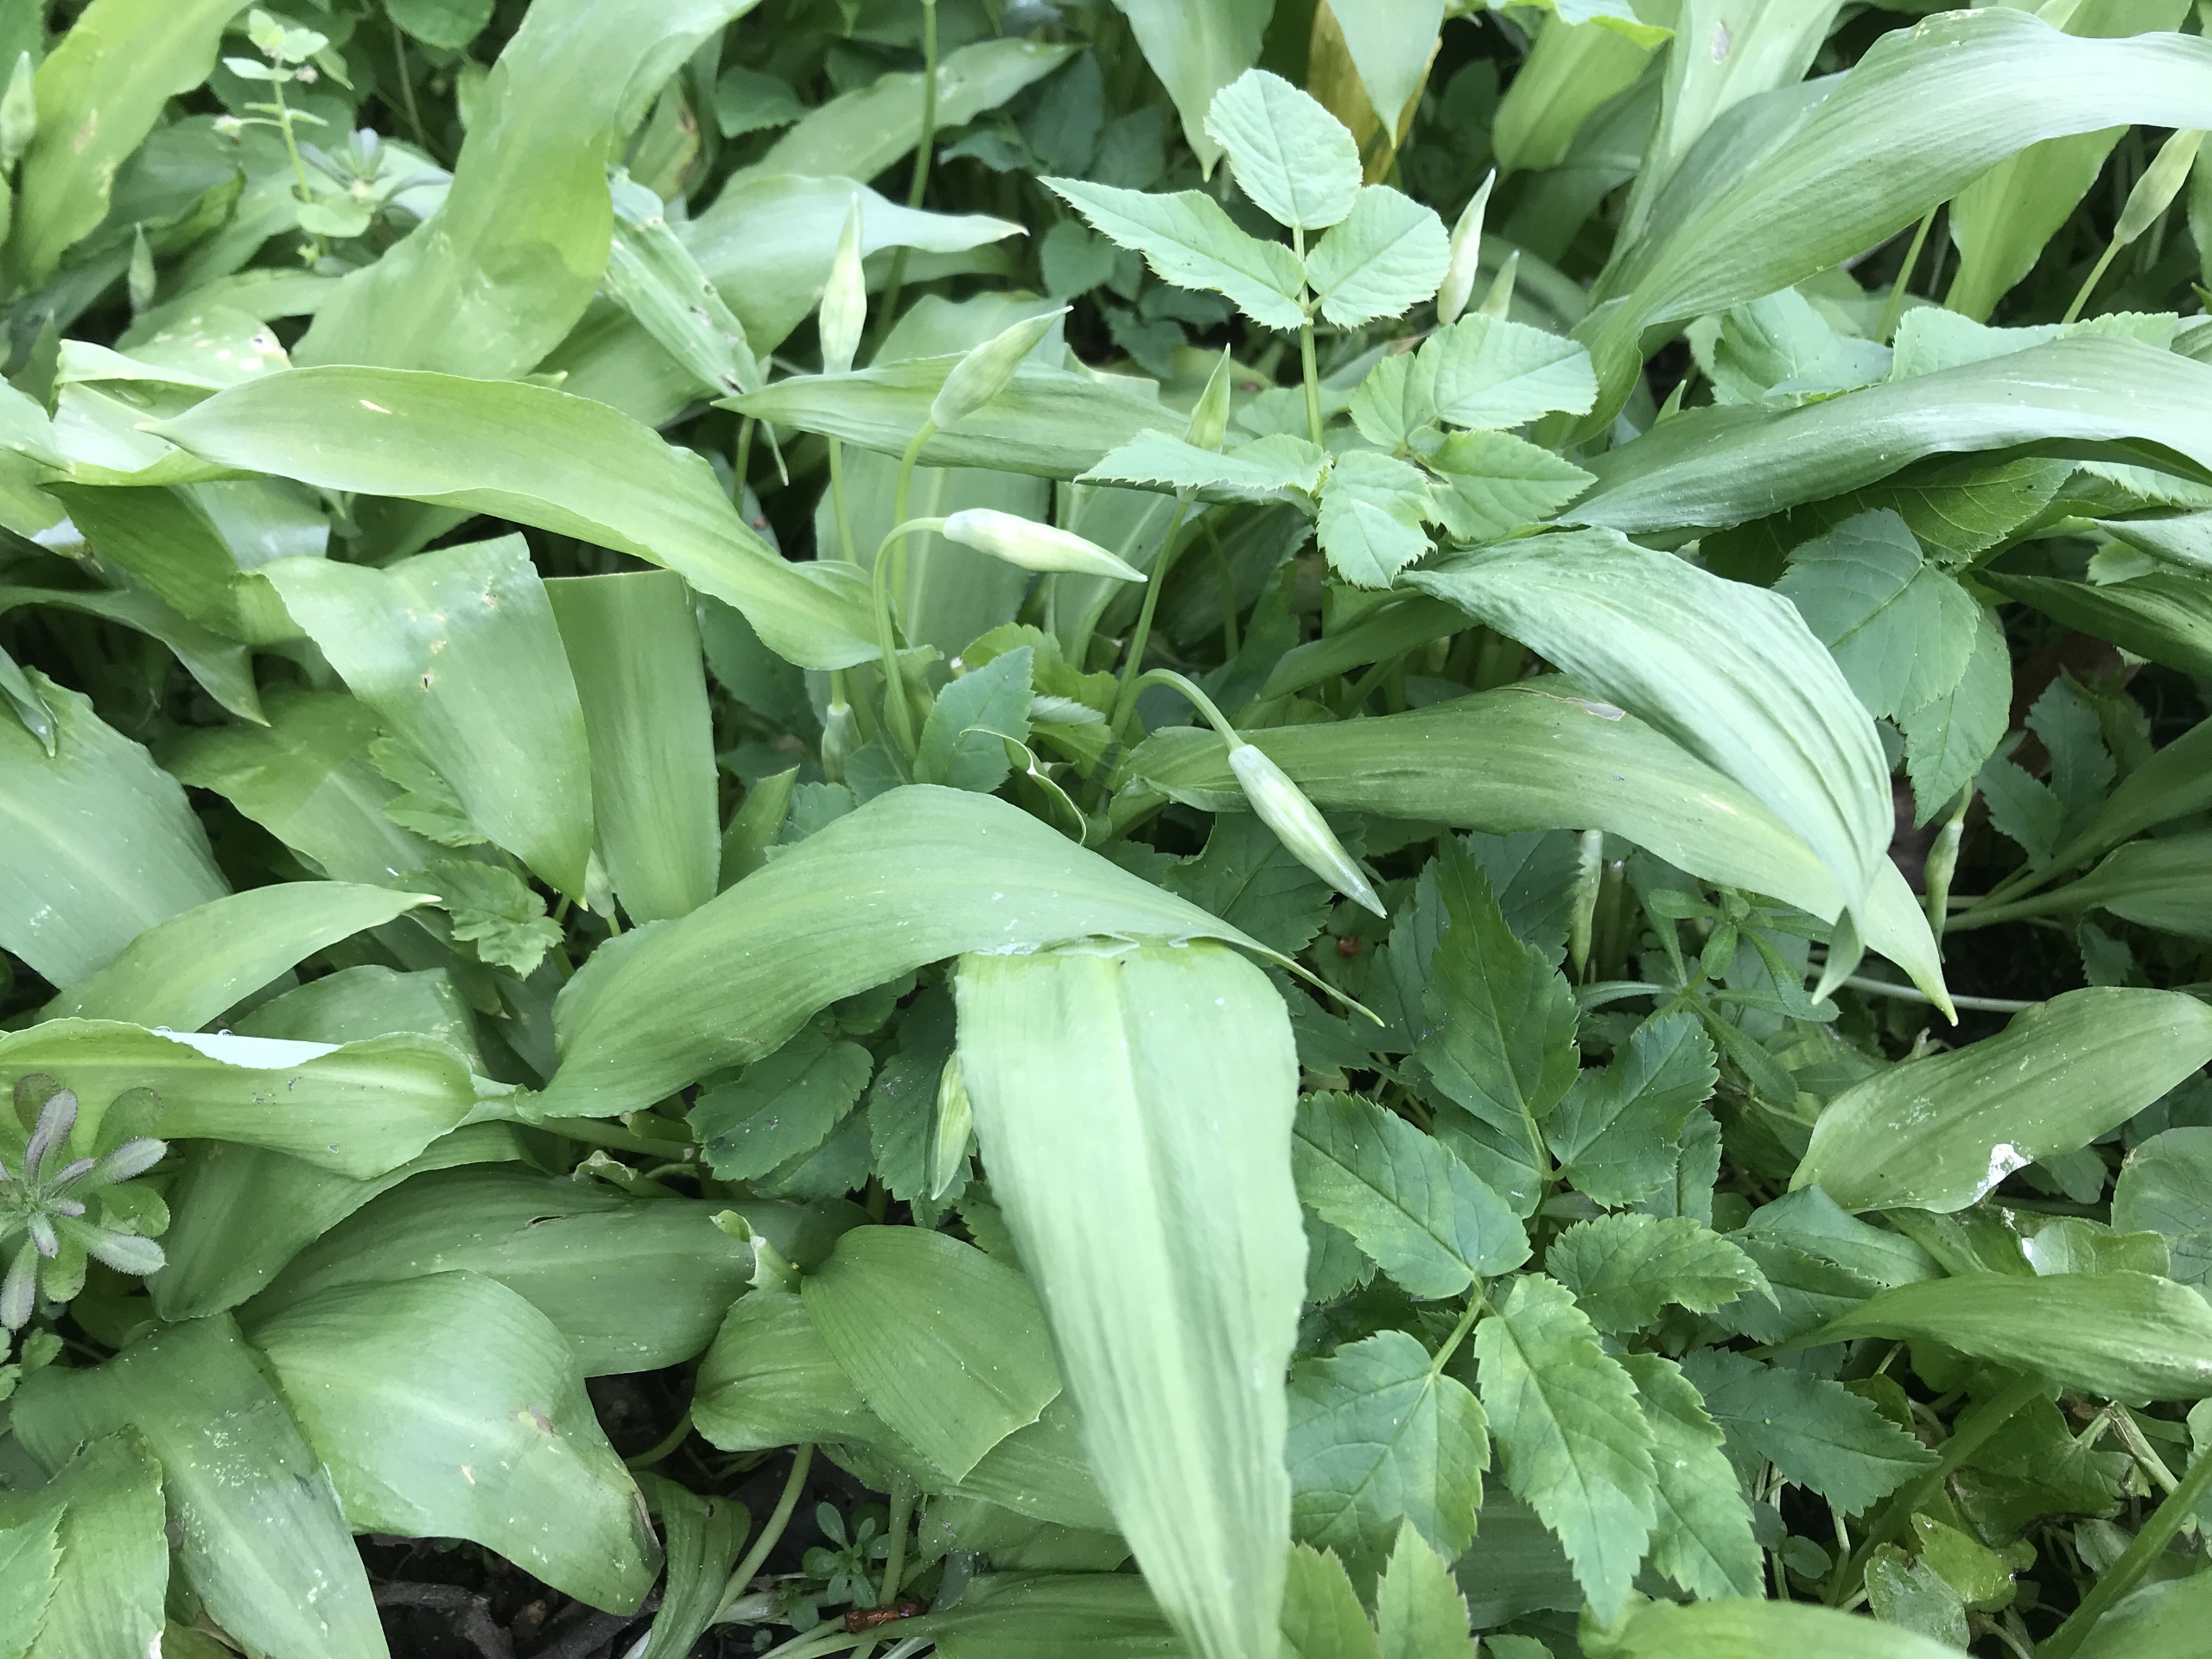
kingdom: Plantae
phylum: Tracheophyta
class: Liliopsida
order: Asparagales
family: Amaryllidaceae
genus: Allium
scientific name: Allium ursinum
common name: Rams-løg
